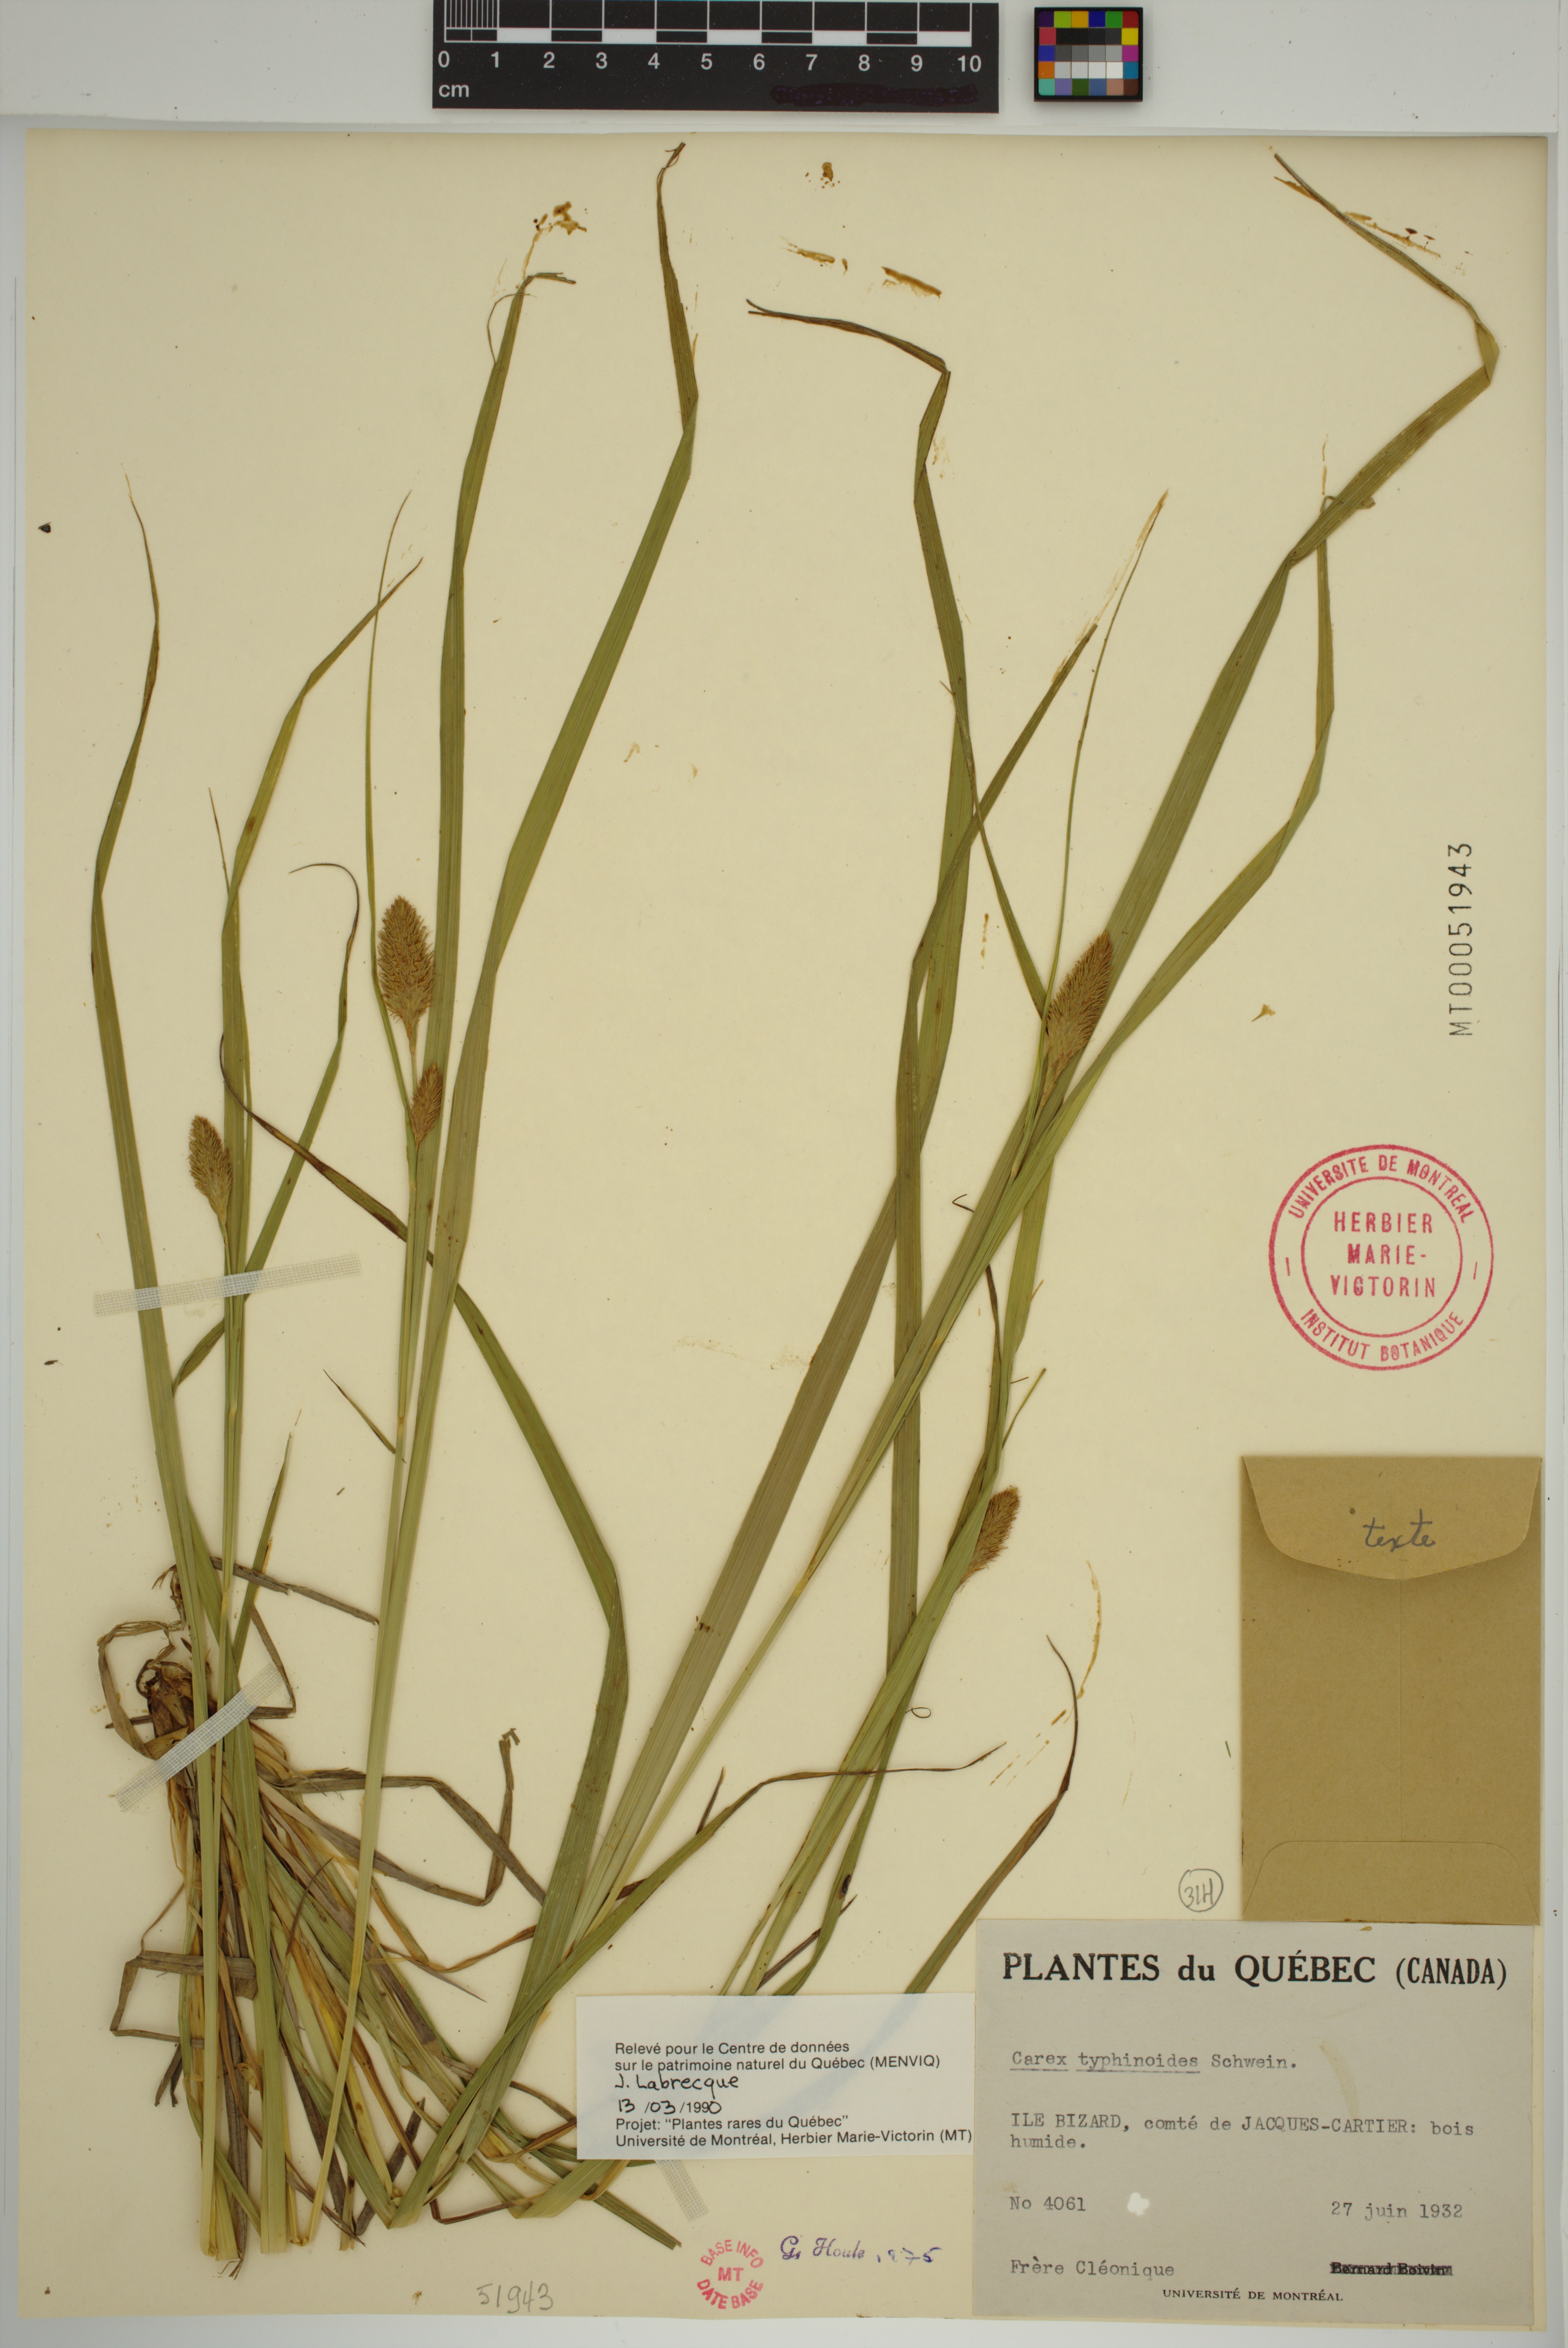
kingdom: Plantae
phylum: Tracheophyta
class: Liliopsida
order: Poales
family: Cyperaceae
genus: Carex
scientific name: Carex typhina
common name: Cattail sedge
